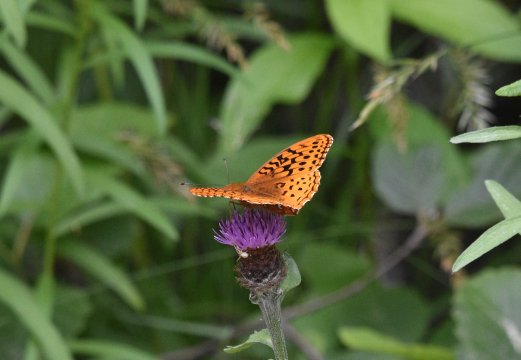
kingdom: Animalia
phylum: Arthropoda
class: Insecta
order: Lepidoptera
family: Nymphalidae
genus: Speyeria
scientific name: Speyeria cybele
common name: Great Spangled Fritillary
